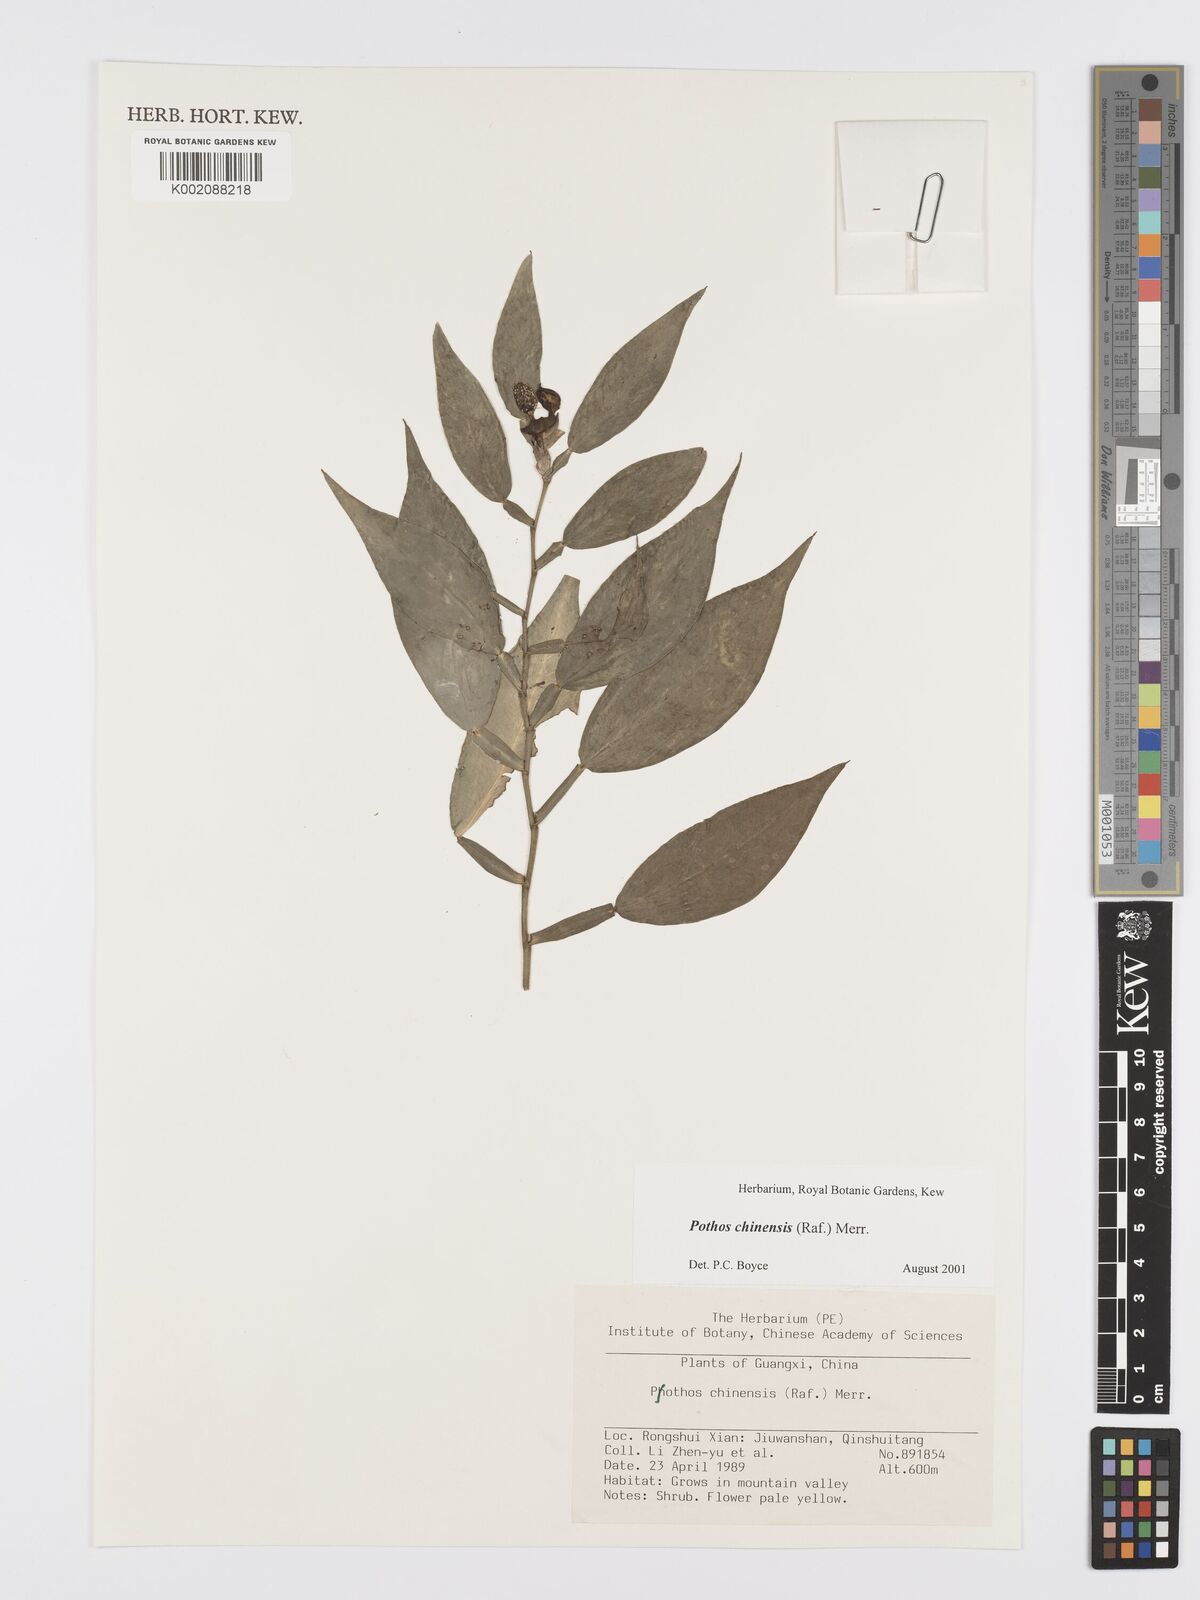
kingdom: Plantae
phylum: Tracheophyta
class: Liliopsida
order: Alismatales
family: Araceae
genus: Pothos
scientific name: Pothos chinensis
